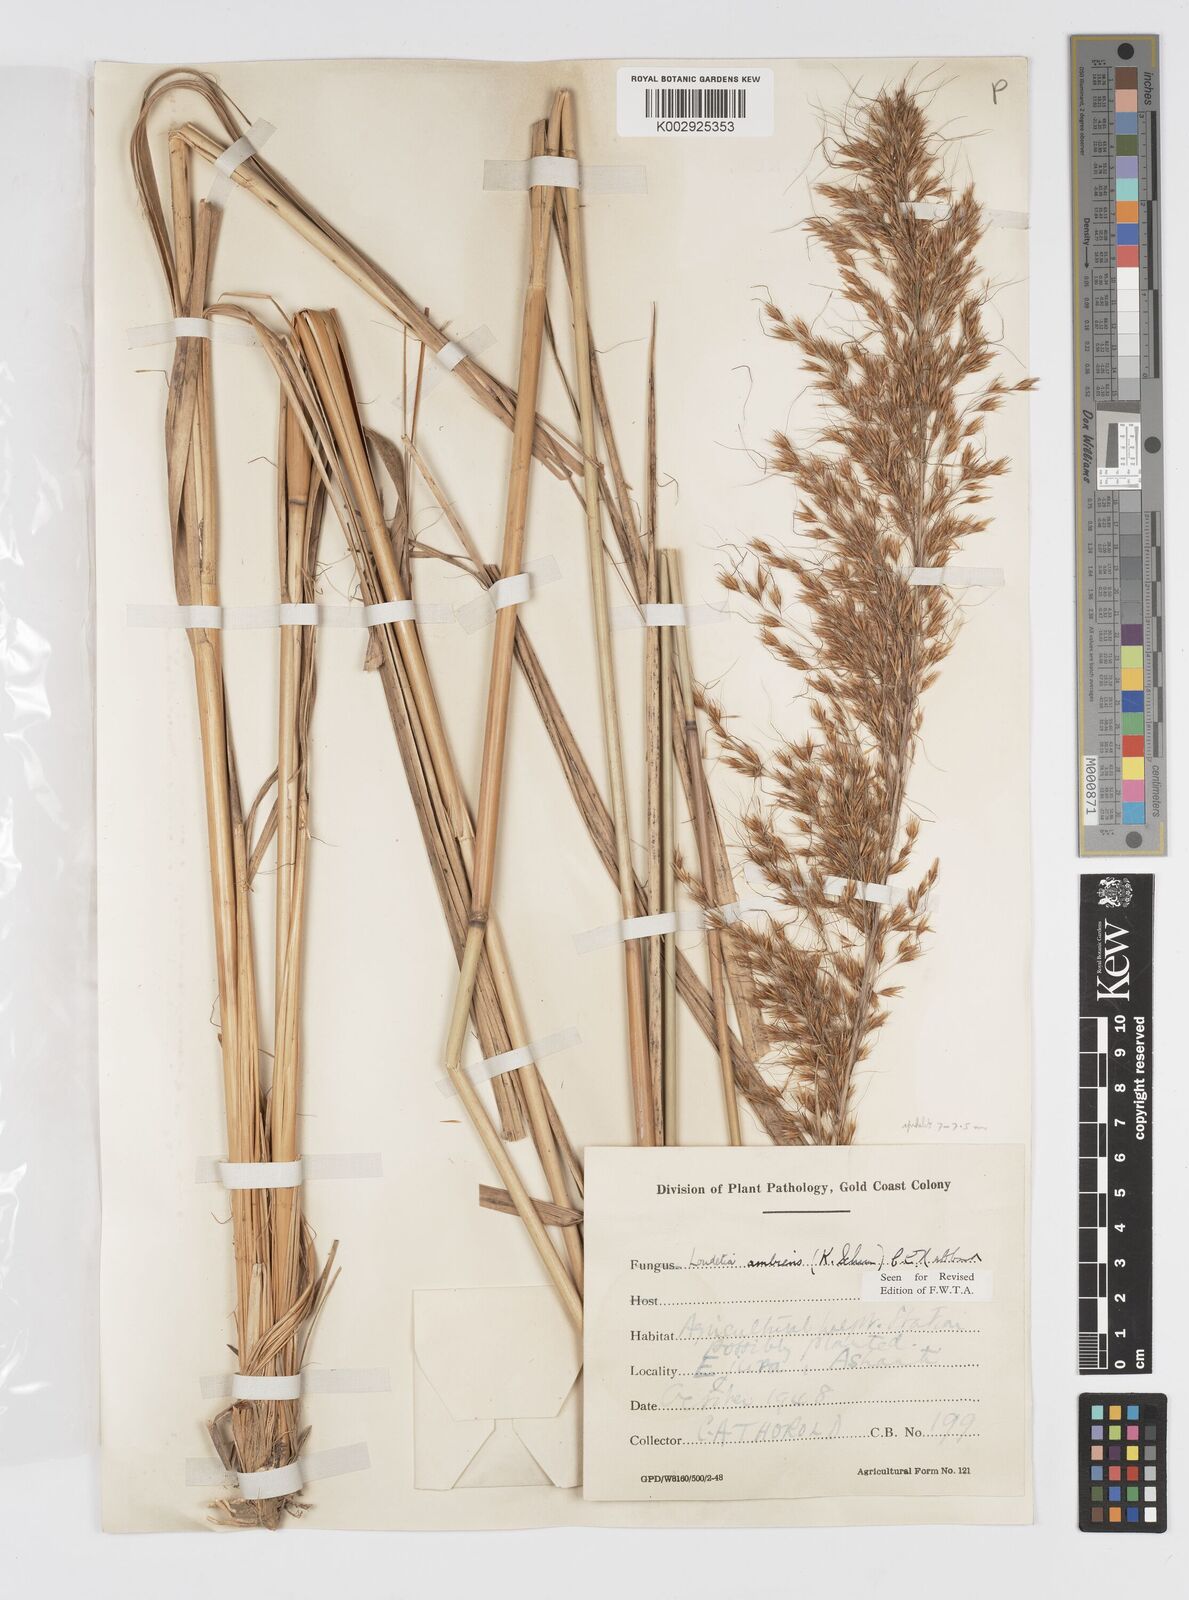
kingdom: Plantae
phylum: Tracheophyta
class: Liliopsida
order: Poales
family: Poaceae
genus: Loudetiopsis
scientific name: Loudetiopsis ambiens
